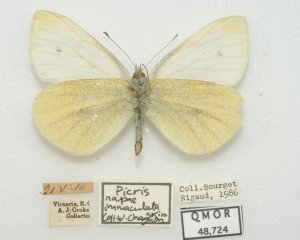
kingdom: Animalia
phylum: Arthropoda
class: Insecta
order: Lepidoptera
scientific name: Lepidoptera
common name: Butterflies
